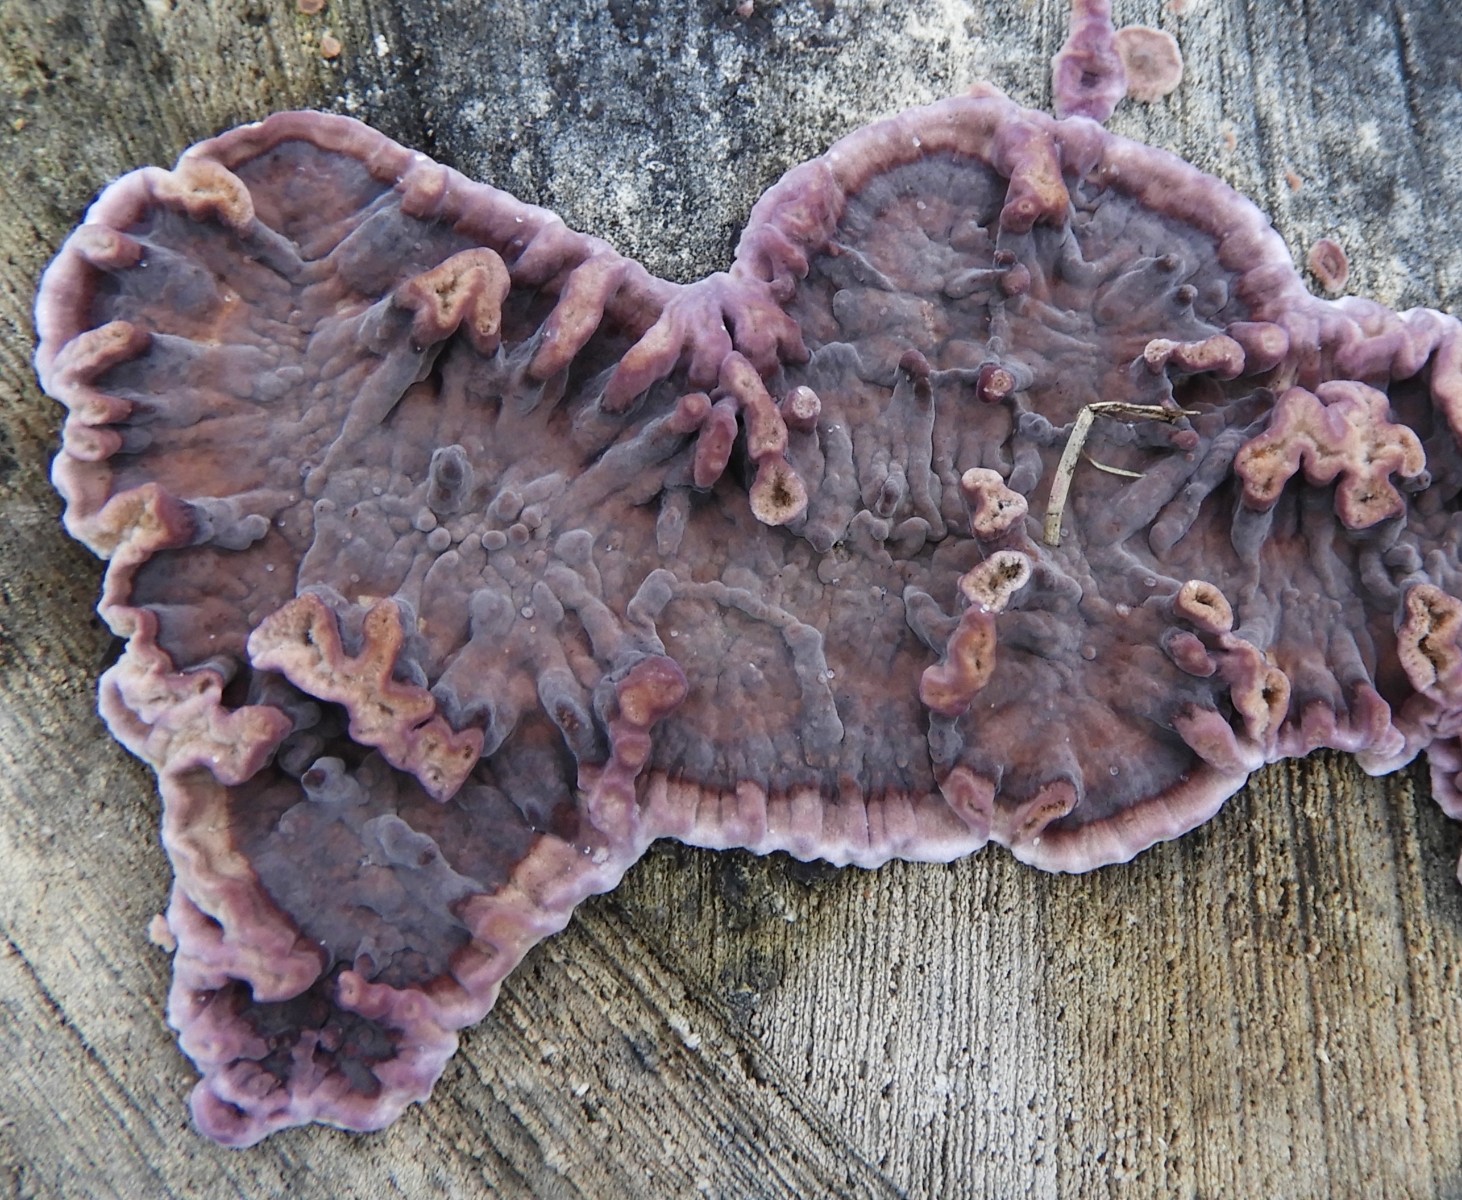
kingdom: Fungi
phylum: Basidiomycota
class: Agaricomycetes
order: Agaricales
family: Cyphellaceae
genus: Chondrostereum
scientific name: Chondrostereum purpureum
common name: purpurlædersvamp
